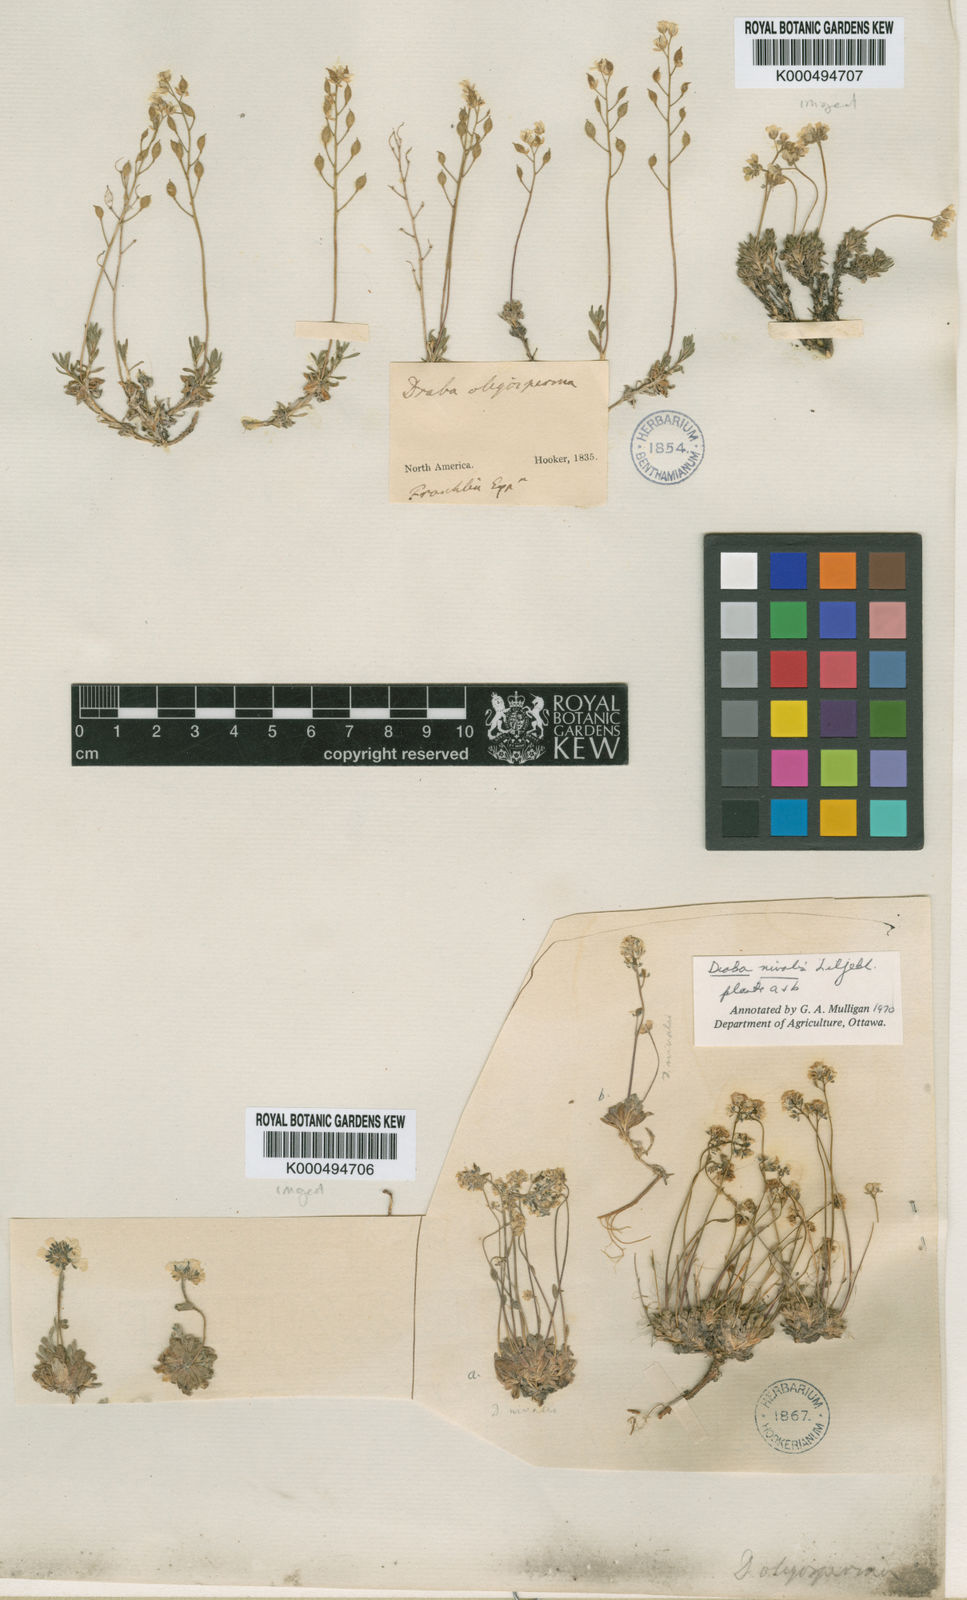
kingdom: Plantae
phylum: Tracheophyta
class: Magnoliopsida
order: Brassicales
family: Brassicaceae
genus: Draba
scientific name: Draba glacialis
